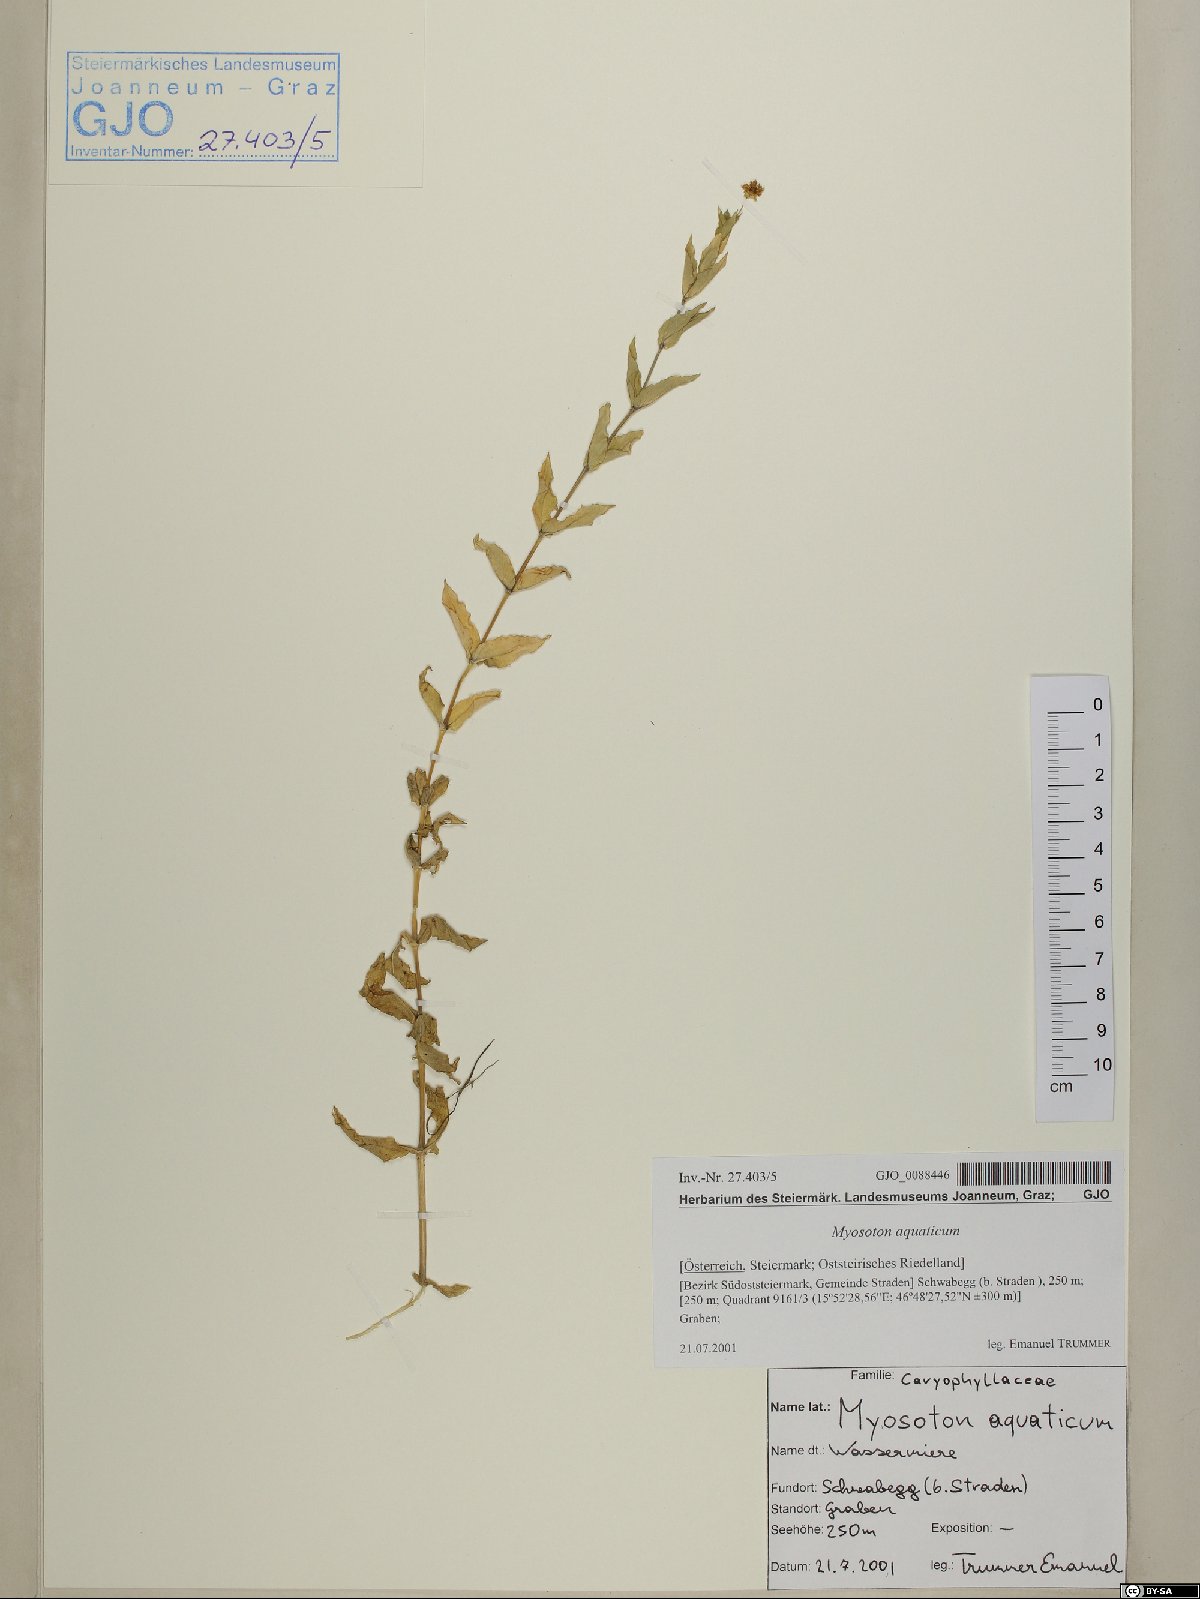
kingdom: Plantae
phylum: Tracheophyta
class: Magnoliopsida
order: Caryophyllales
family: Caryophyllaceae
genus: Stellaria
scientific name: Stellaria aquatica
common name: Water chickweed
